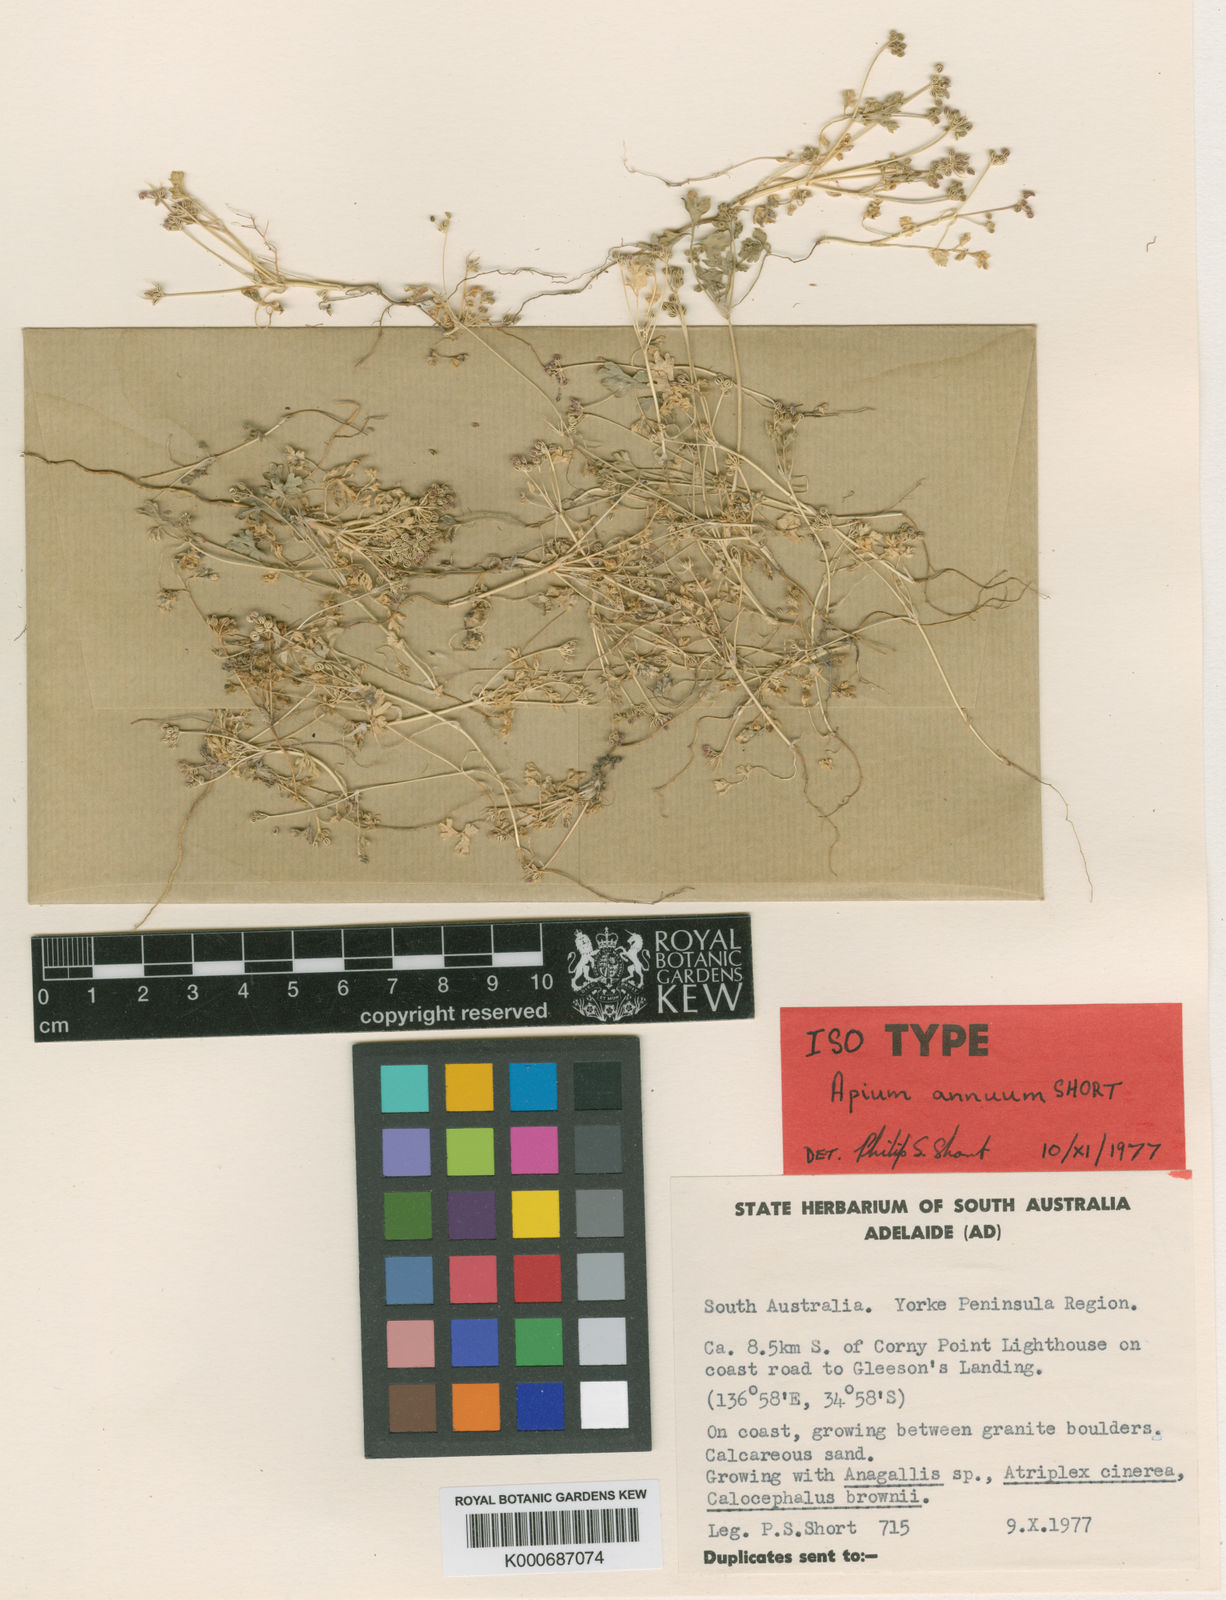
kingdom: Plantae
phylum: Tracheophyta
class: Magnoliopsida
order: Apiales
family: Apiaceae
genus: Apium
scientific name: Apium annuum
